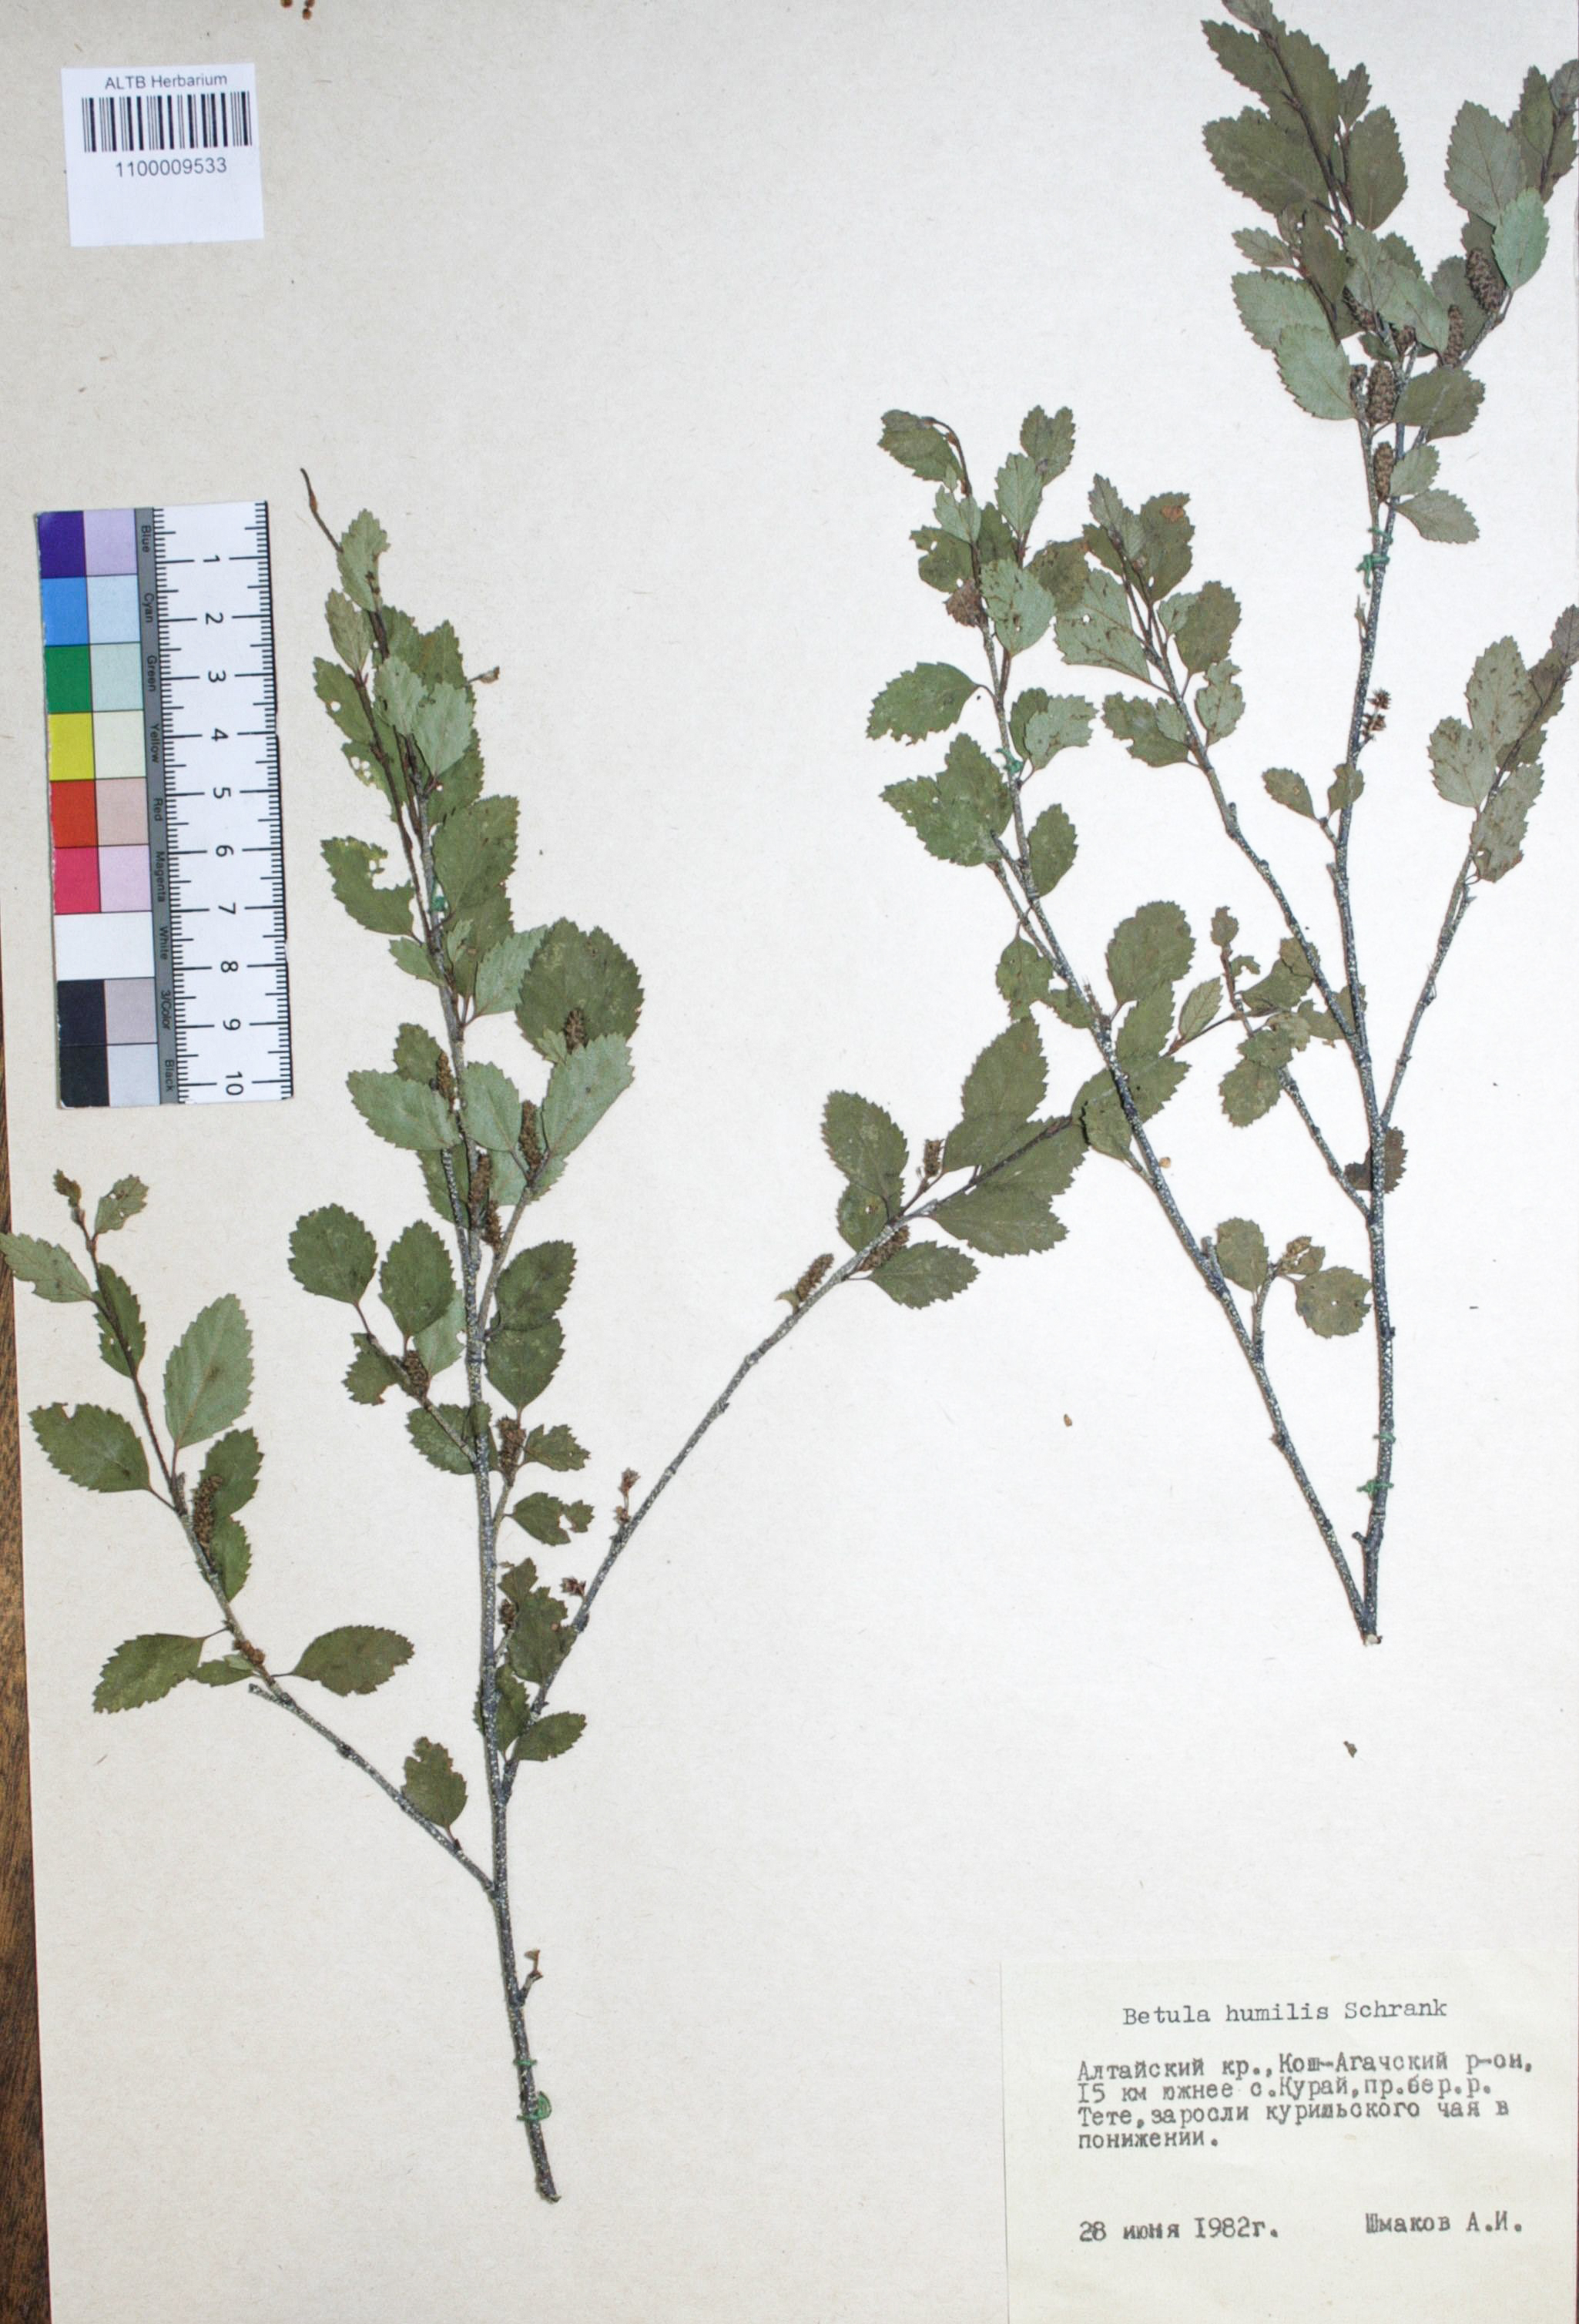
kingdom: Plantae
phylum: Tracheophyta
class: Magnoliopsida
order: Fagales
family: Betulaceae
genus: Betula
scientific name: Betula humilis
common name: Shrubby birch
